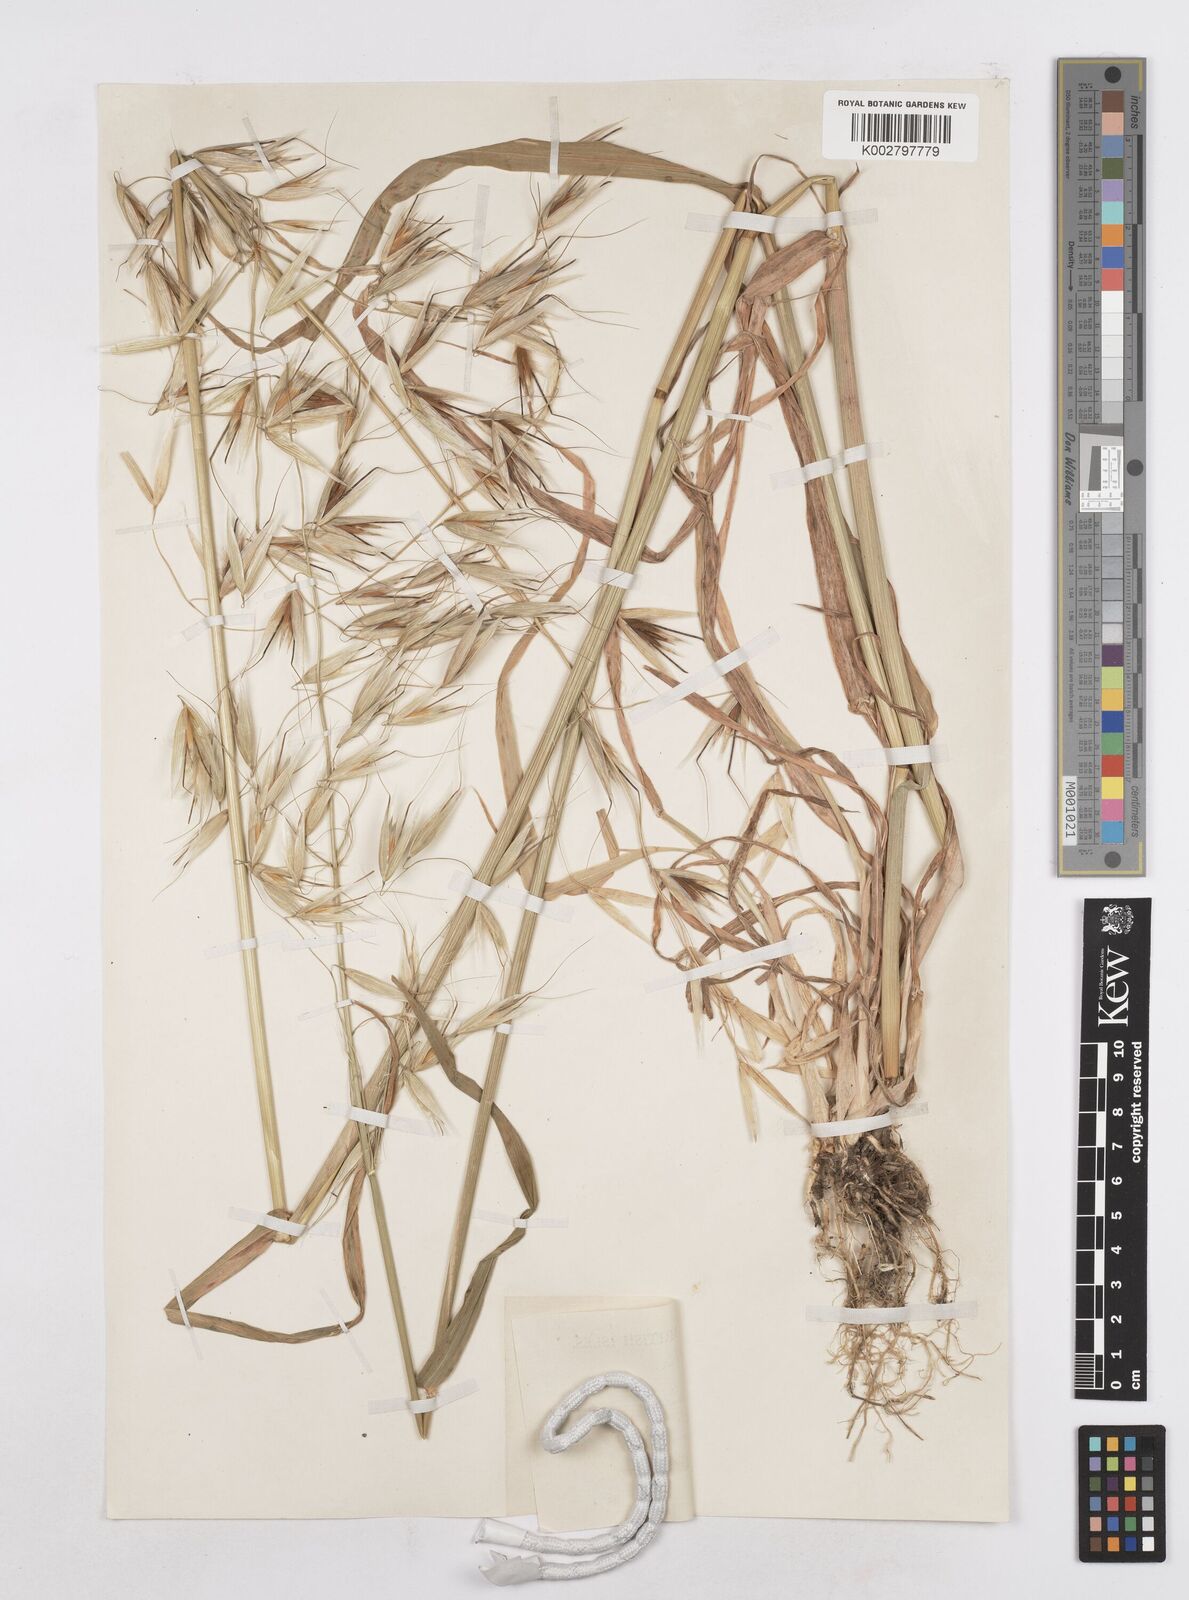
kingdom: Plantae
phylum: Tracheophyta
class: Liliopsida
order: Poales
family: Poaceae
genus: Avena
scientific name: Avena sterilis
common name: Animated oat
